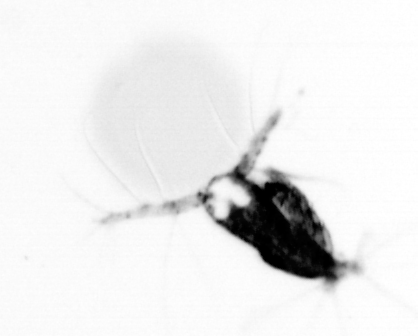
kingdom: Animalia
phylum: Arthropoda
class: Copepoda
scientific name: Copepoda
